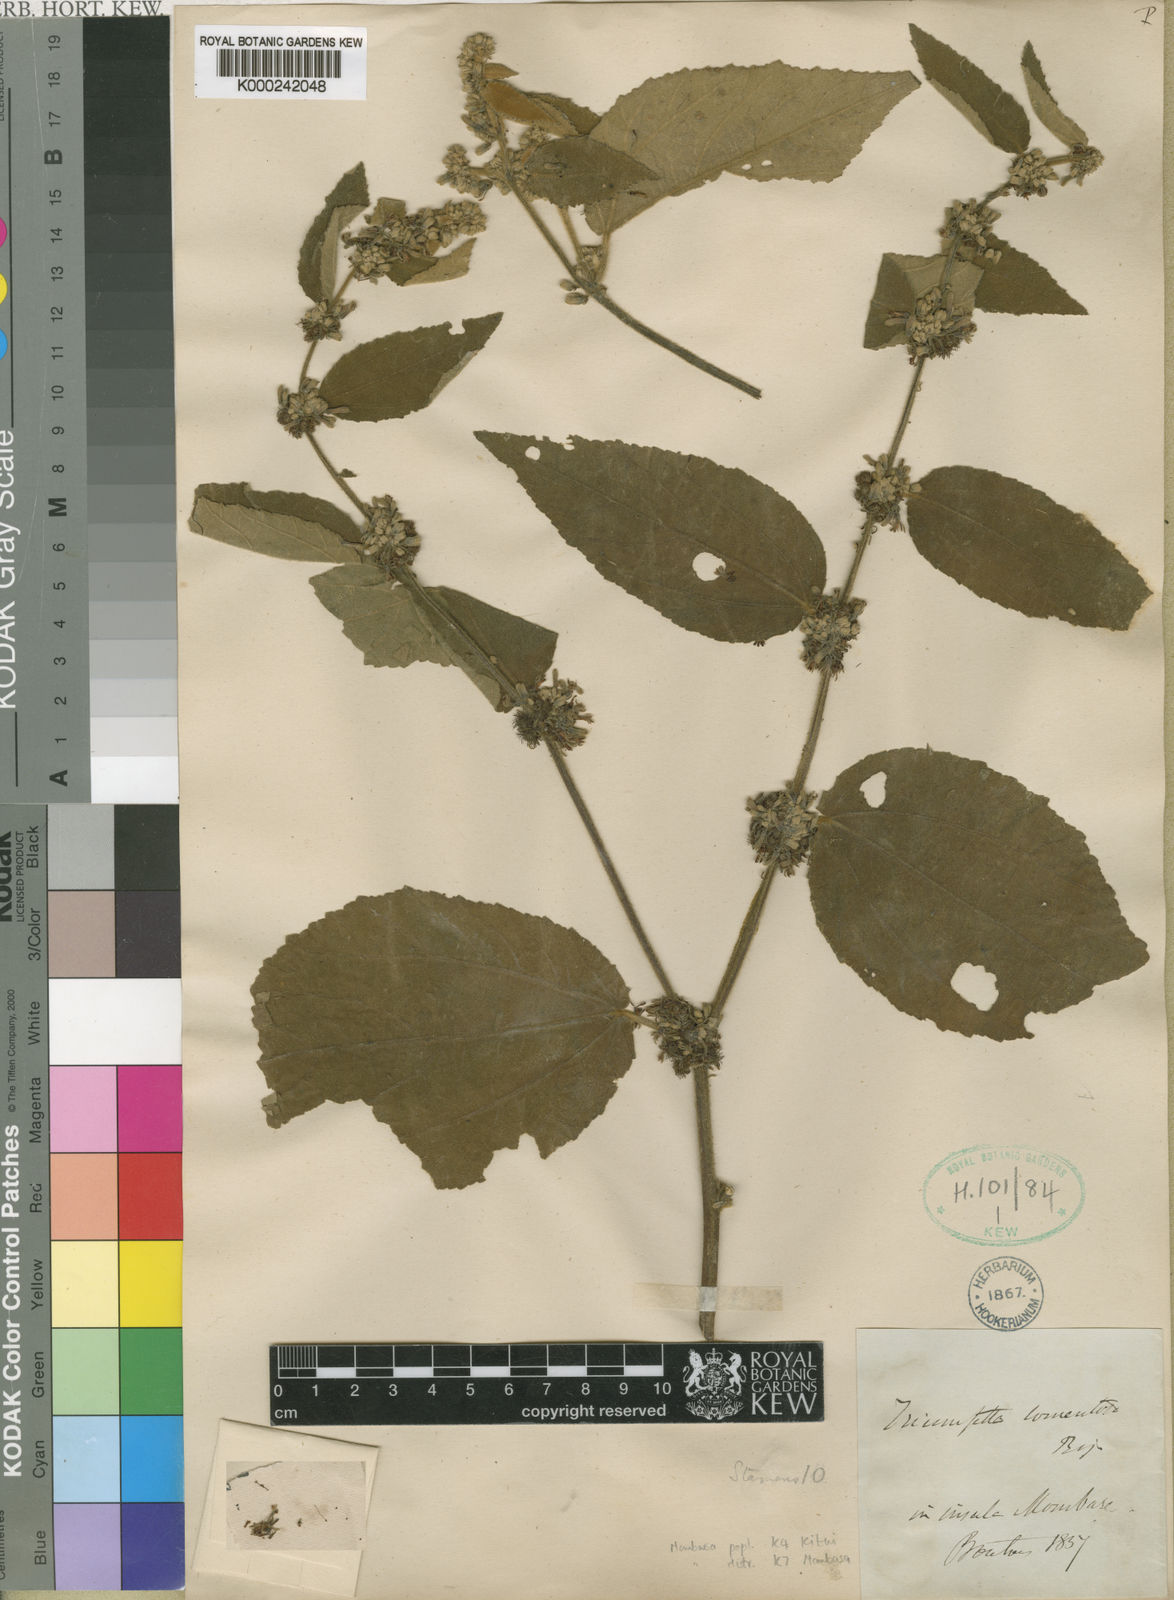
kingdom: Plantae
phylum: Tracheophyta
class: Magnoliopsida
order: Malvales
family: Malvaceae
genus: Triumfetta
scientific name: Triumfetta
